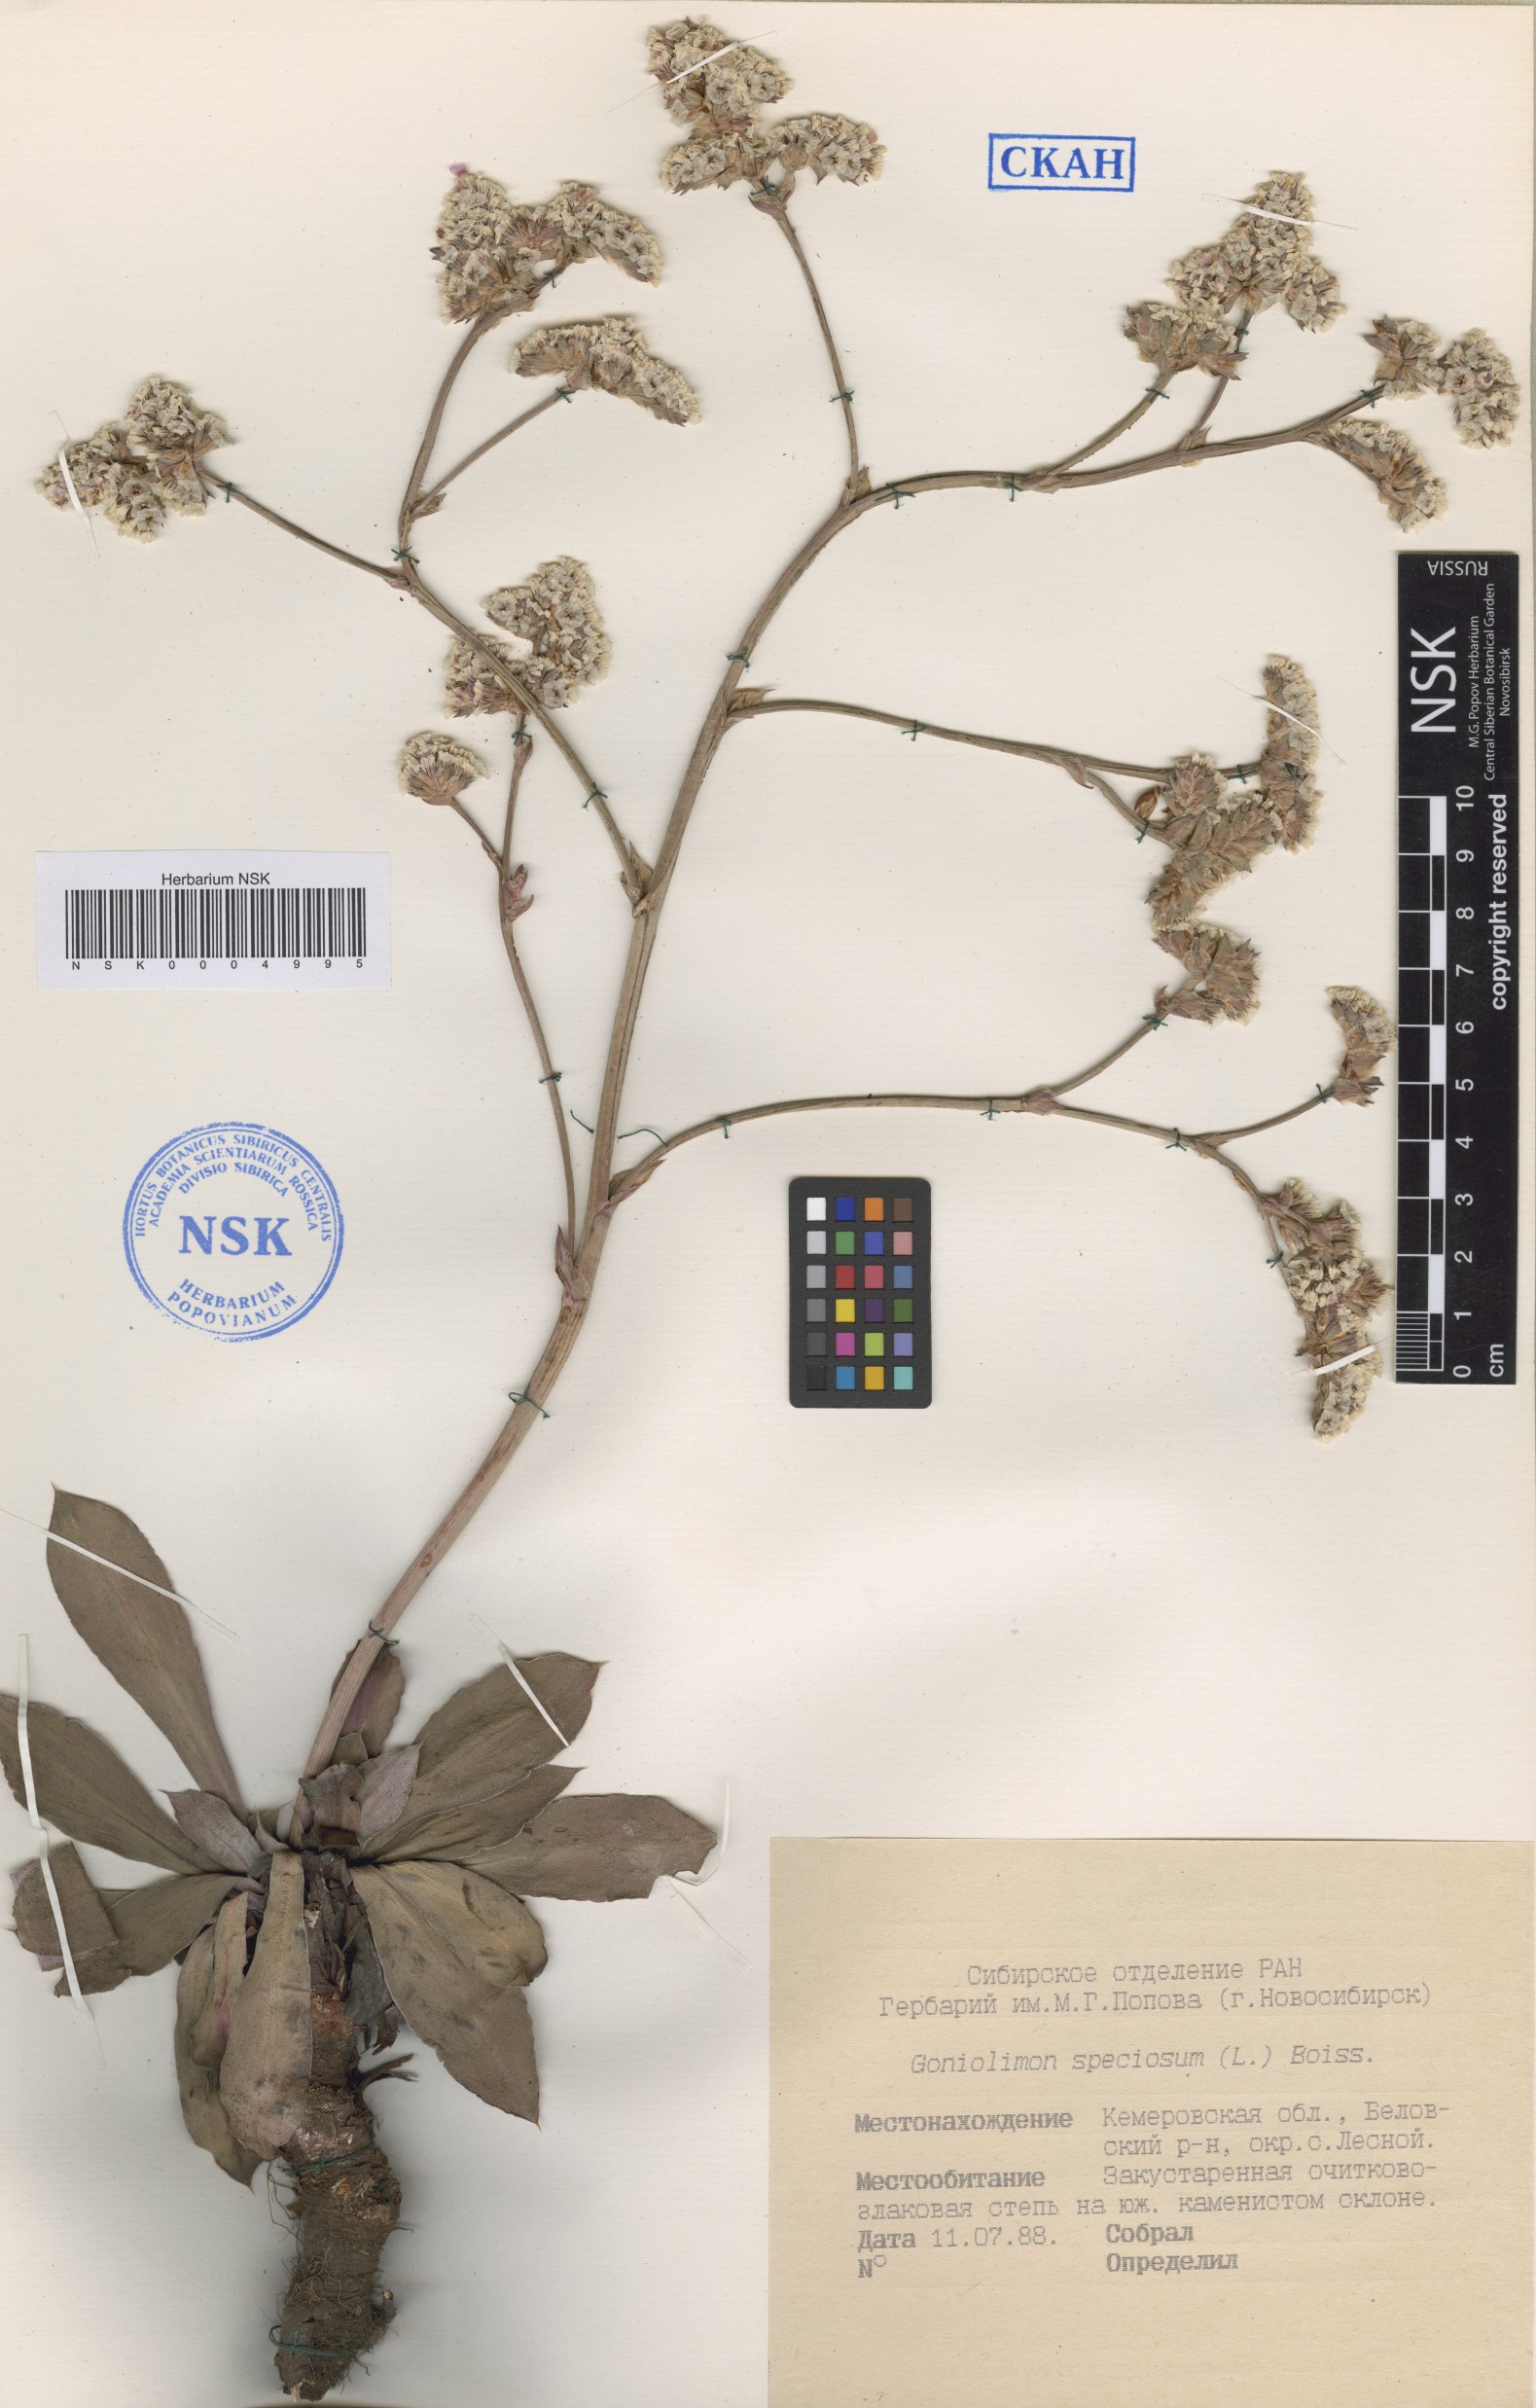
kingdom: Plantae
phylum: Tracheophyta
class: Magnoliopsida
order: Caryophyllales
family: Plumbaginaceae
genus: Goniolimon
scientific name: Goniolimon speciosum
